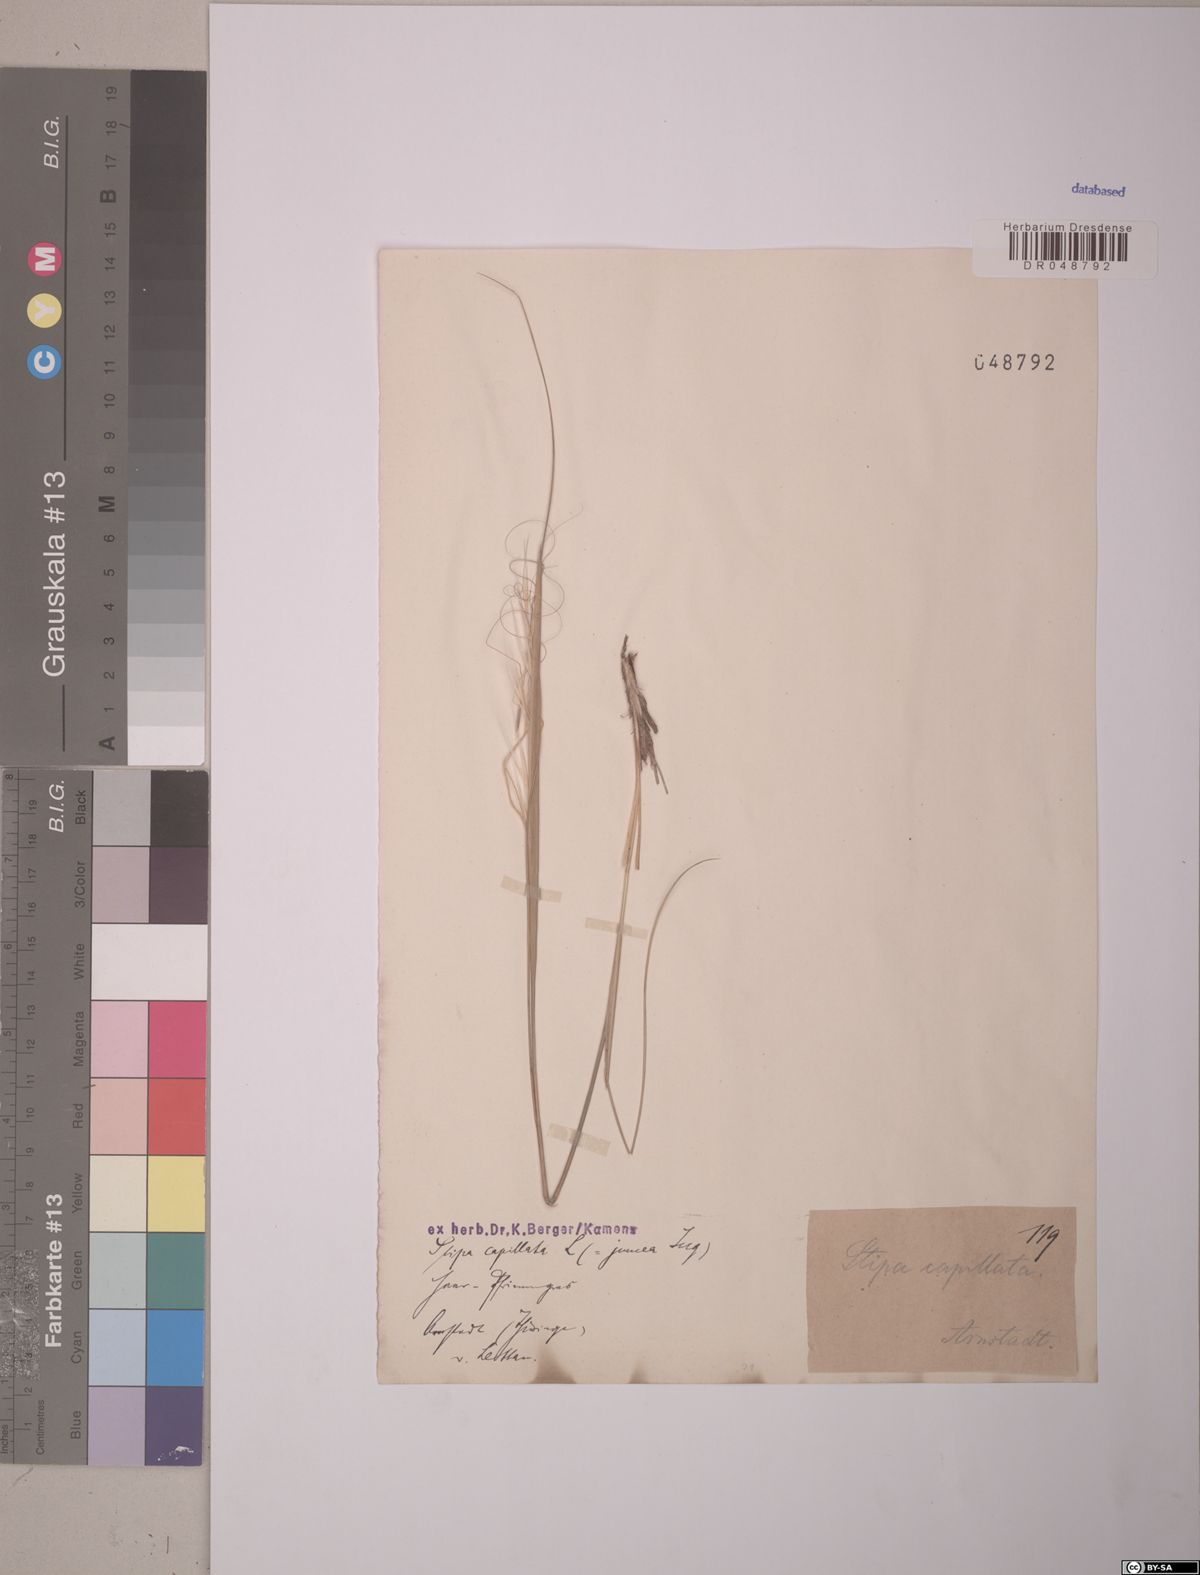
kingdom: Plantae
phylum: Tracheophyta
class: Liliopsida
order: Poales
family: Poaceae
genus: Stipa
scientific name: Stipa capillata
